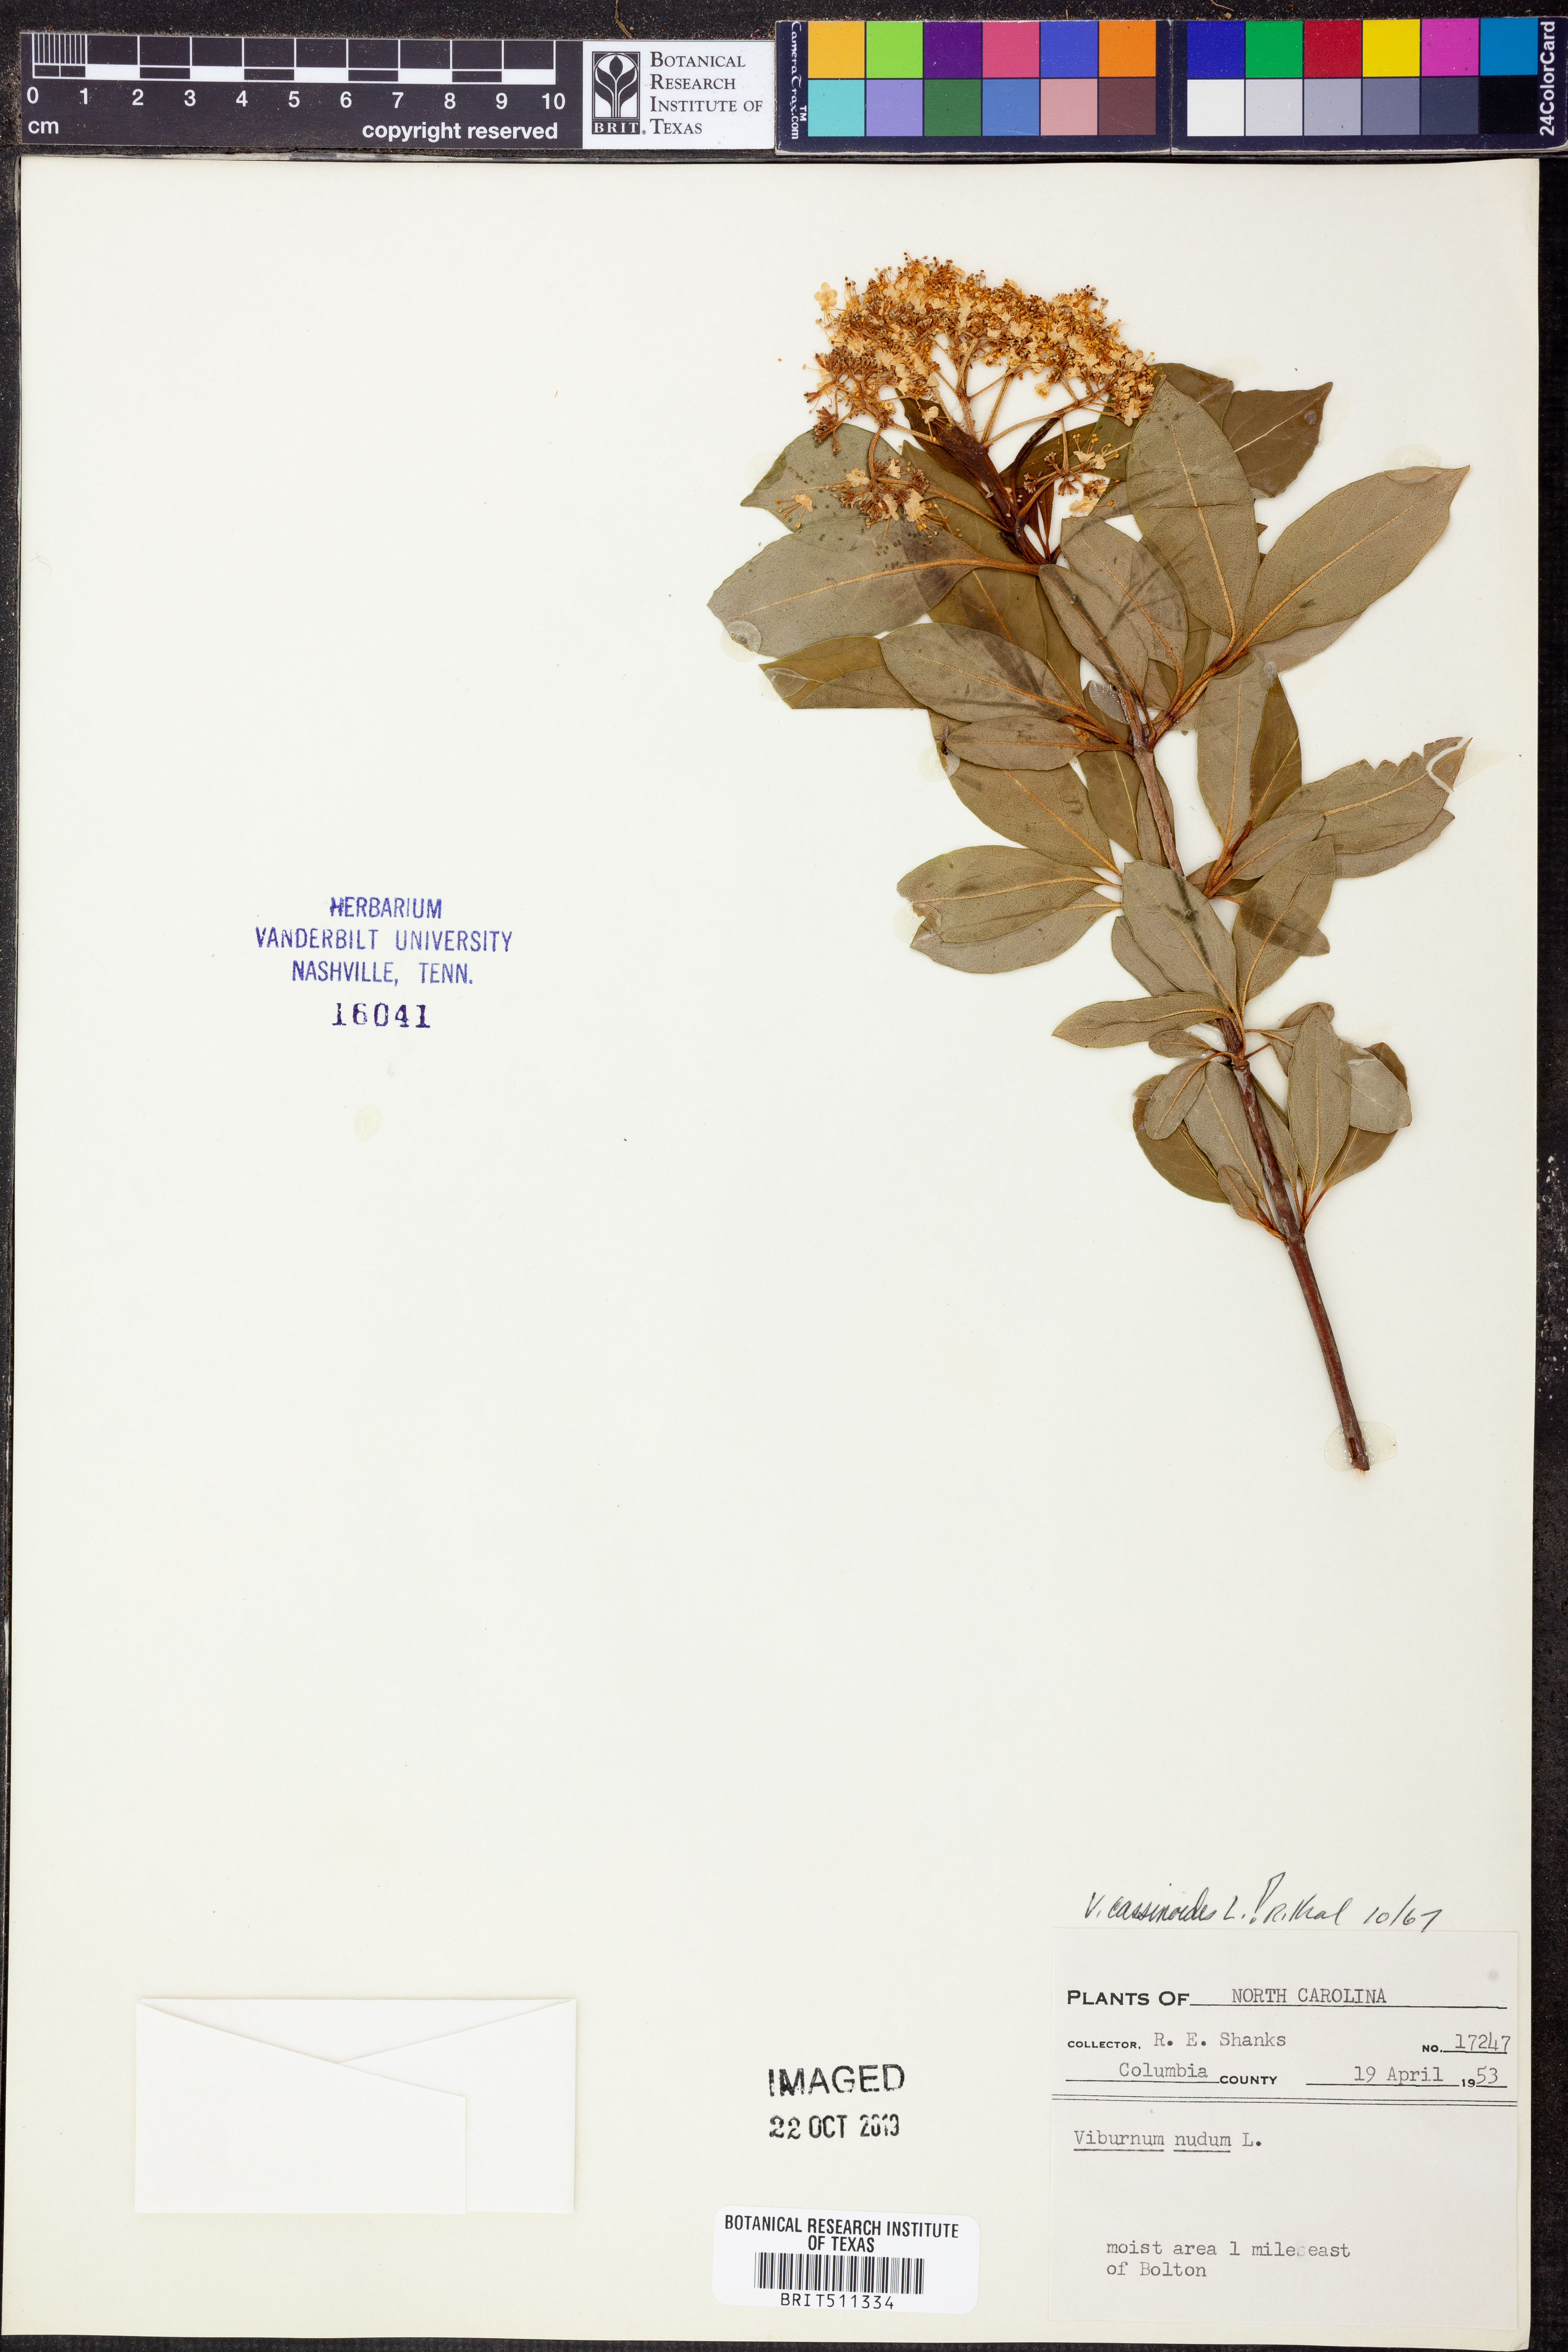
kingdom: Plantae
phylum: Tracheophyta
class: Magnoliopsida
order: Dipsacales
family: Viburnaceae
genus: Viburnum
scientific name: Viburnum cassinoides
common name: Swamp haw
